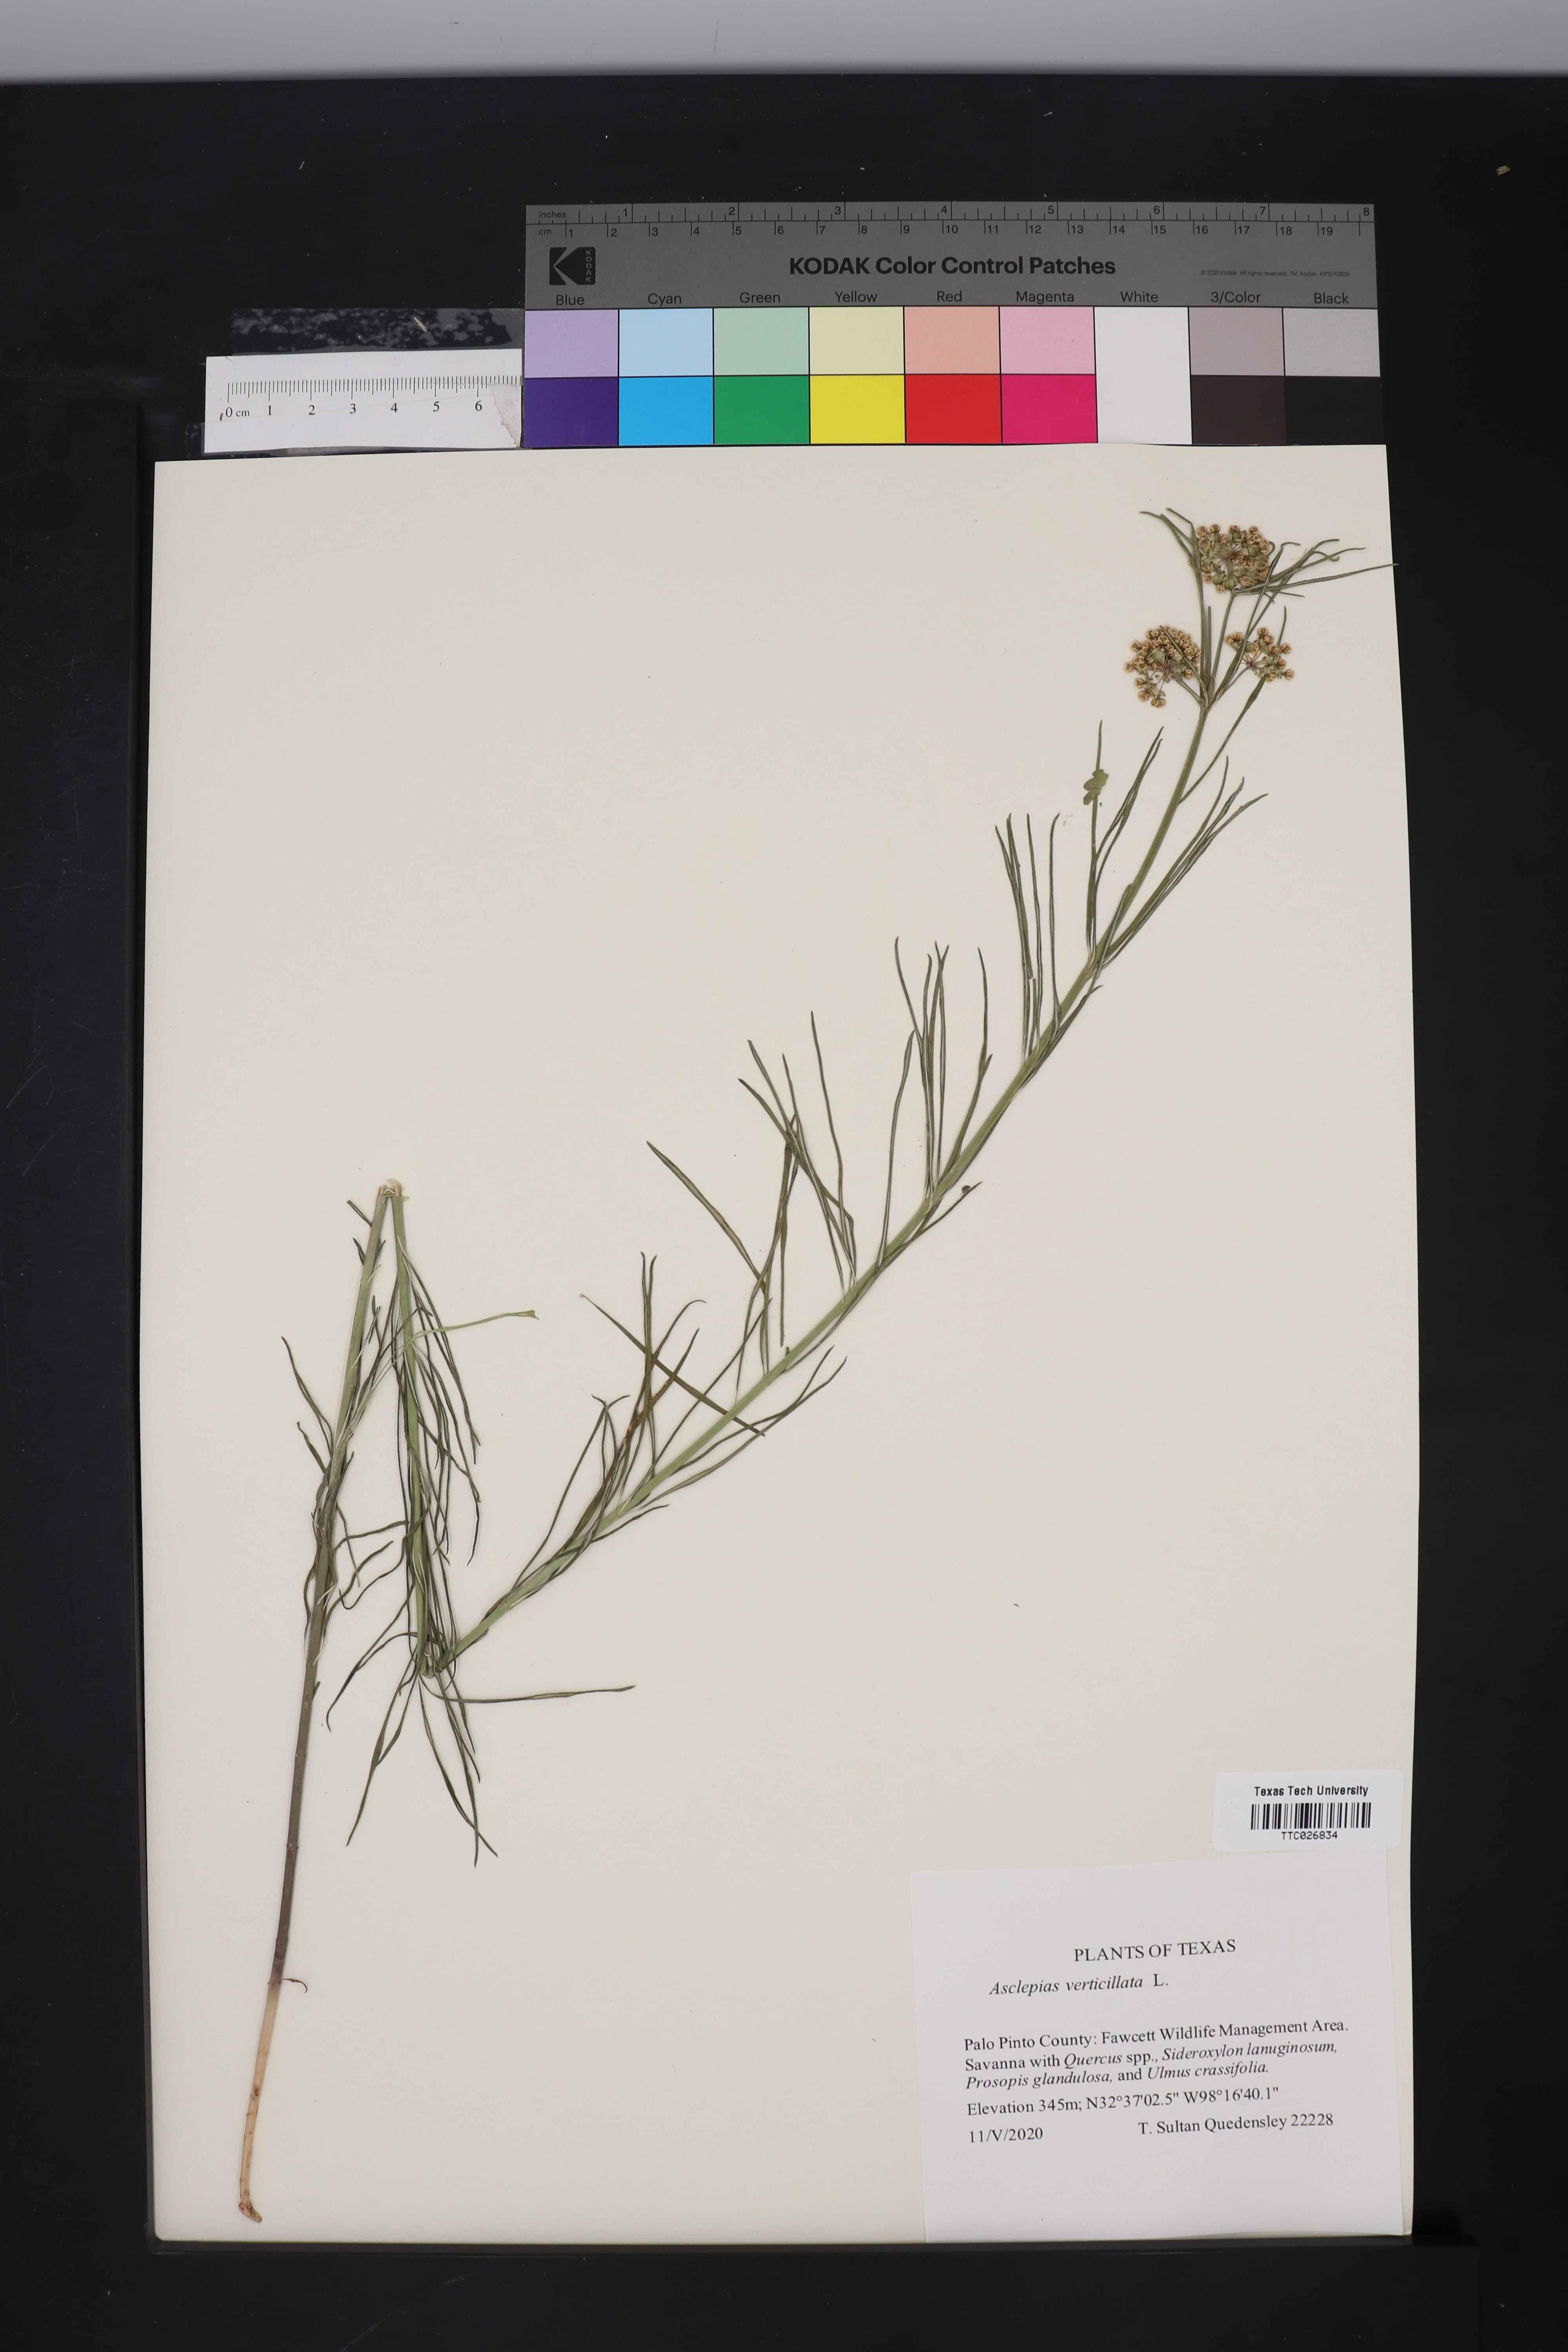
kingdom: Plantae
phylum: Tracheophyta
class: Magnoliopsida
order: Gentianales
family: Apocynaceae
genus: Asclepias
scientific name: Asclepias verticillata
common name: Eastern whorled milkweed
